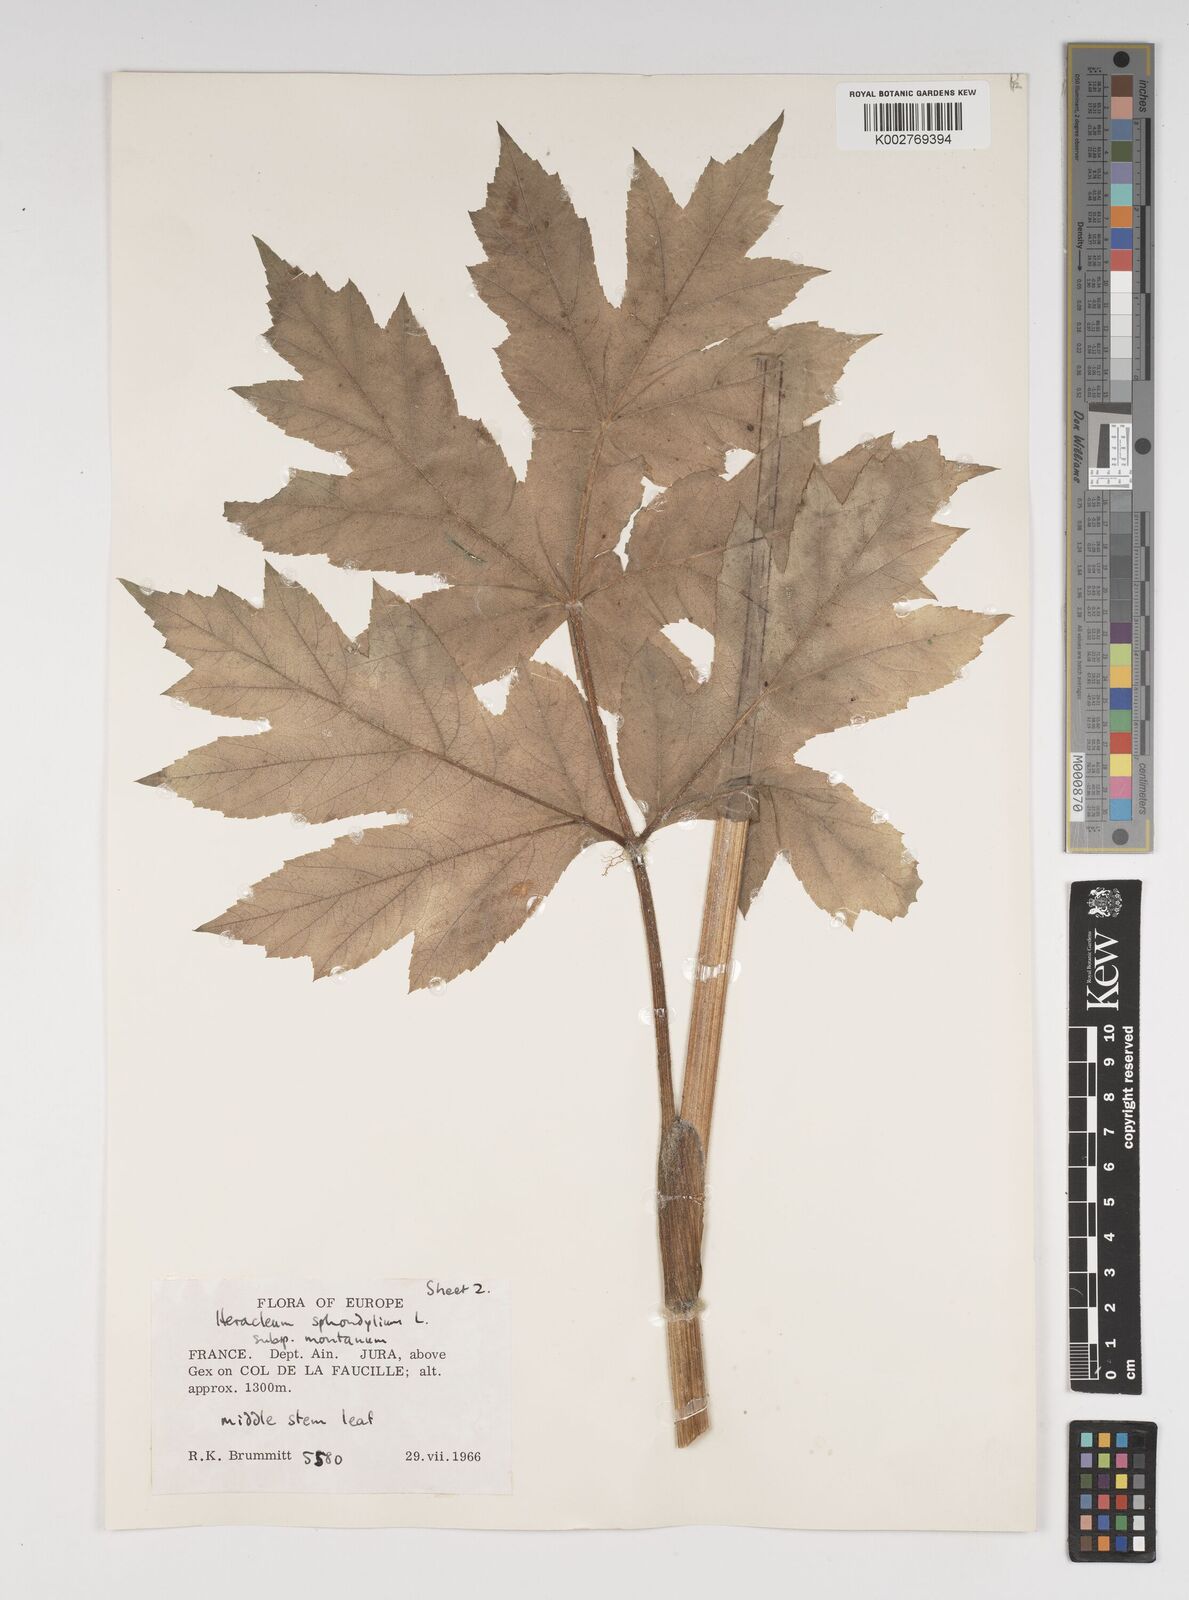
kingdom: Plantae
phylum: Tracheophyta
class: Magnoliopsida
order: Apiales
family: Apiaceae
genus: Heracleum
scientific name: Heracleum sphondylium
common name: Hogweed
